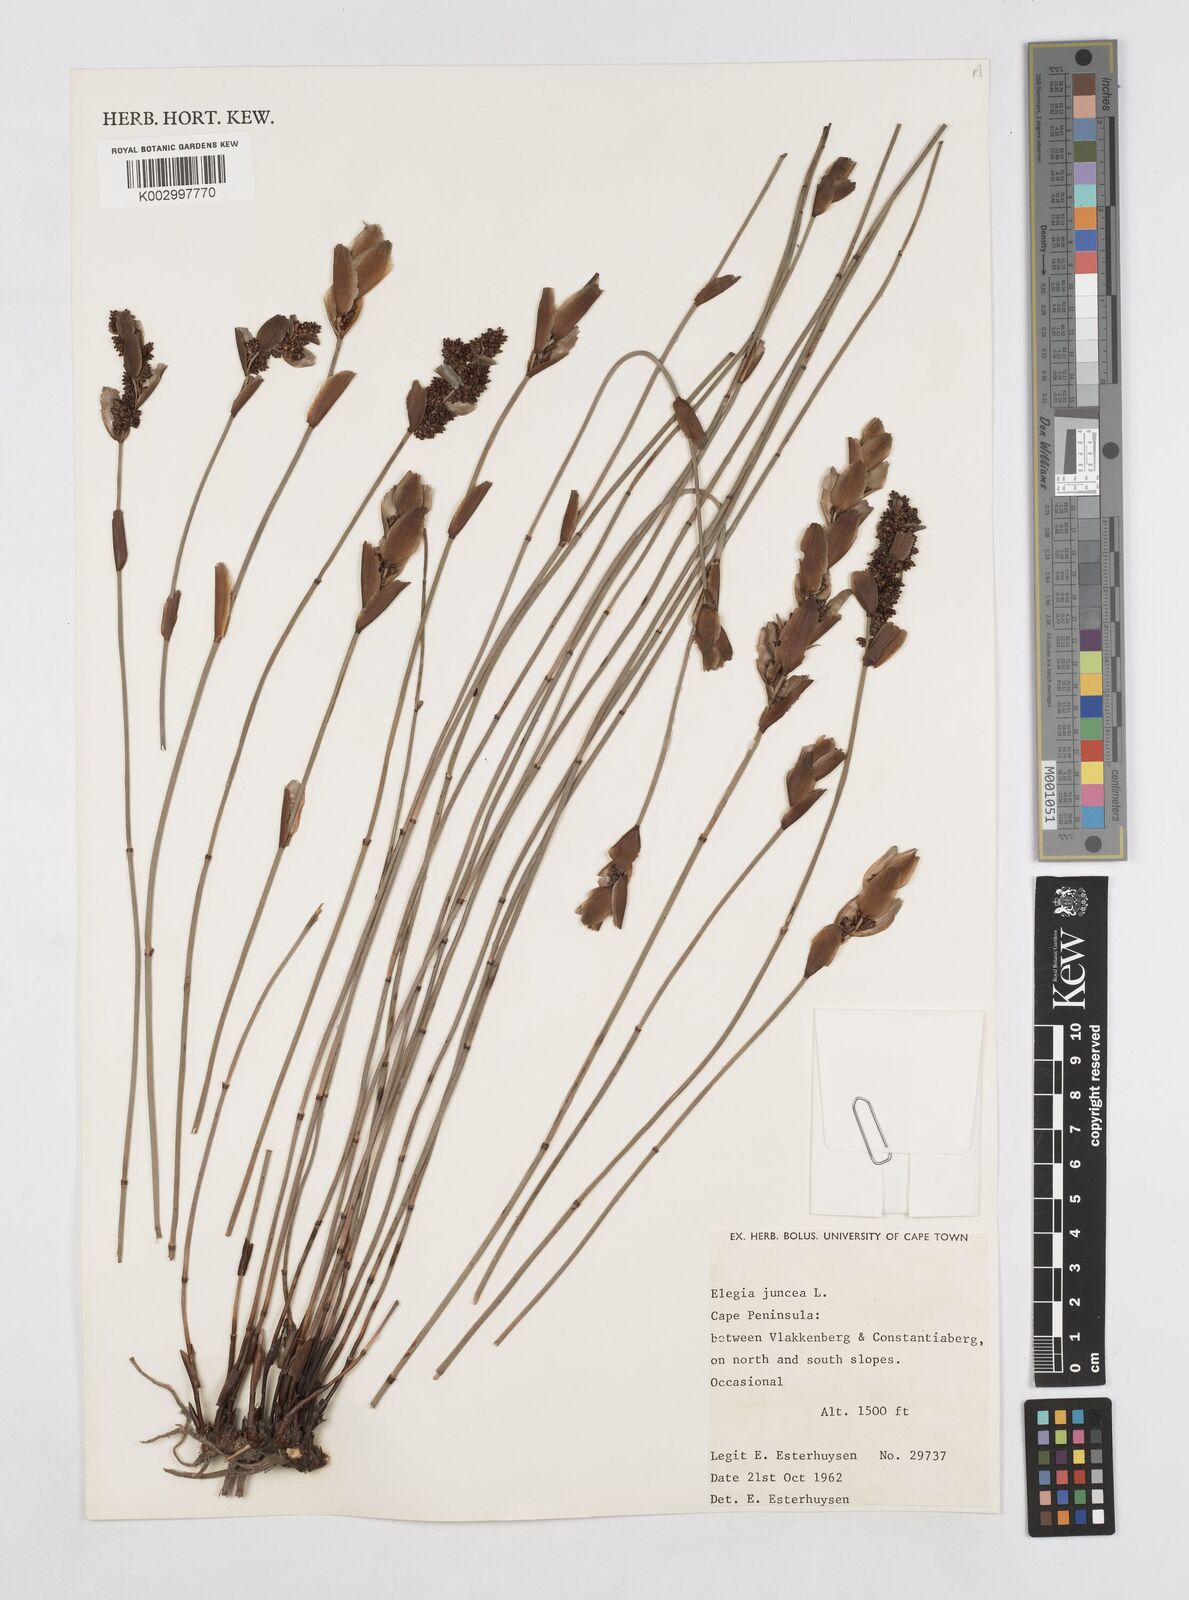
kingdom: Plantae
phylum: Tracheophyta
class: Liliopsida
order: Poales
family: Restionaceae
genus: Elegia
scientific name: Elegia juncea
